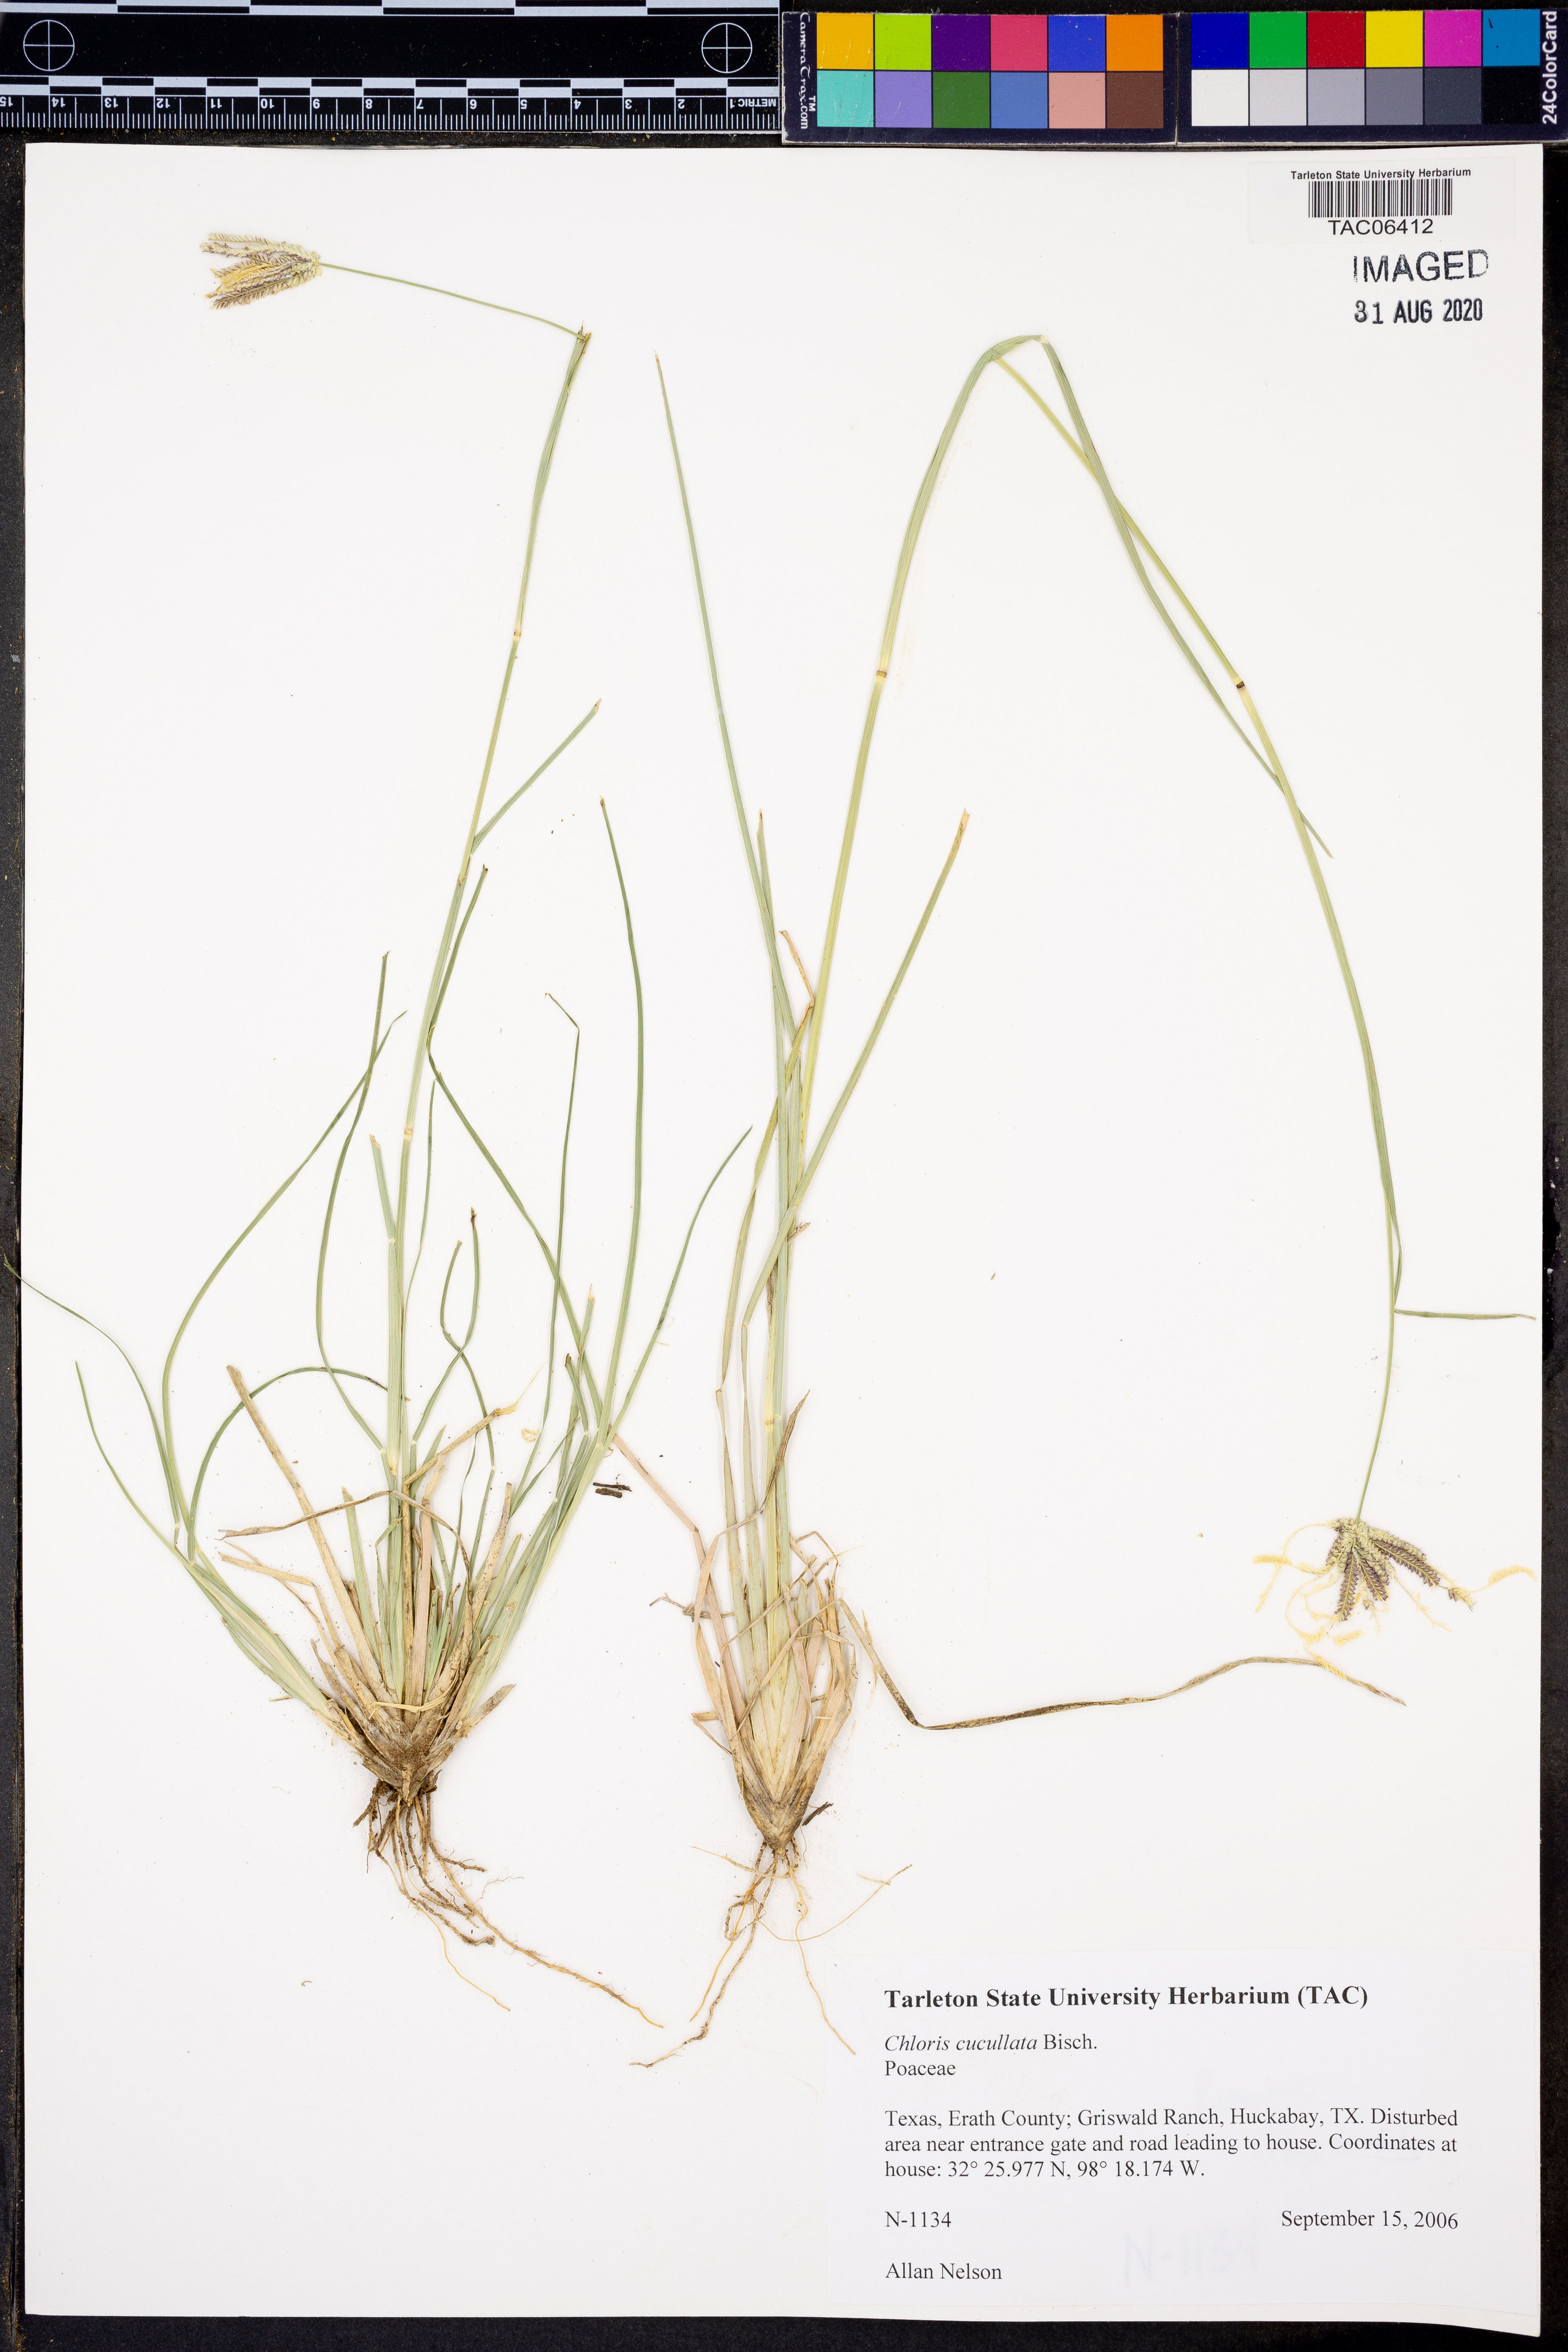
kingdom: Plantae
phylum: Tracheophyta
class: Liliopsida
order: Poales
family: Poaceae
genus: Chloris
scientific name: Chloris cucullata
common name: Hooded windmill grass
